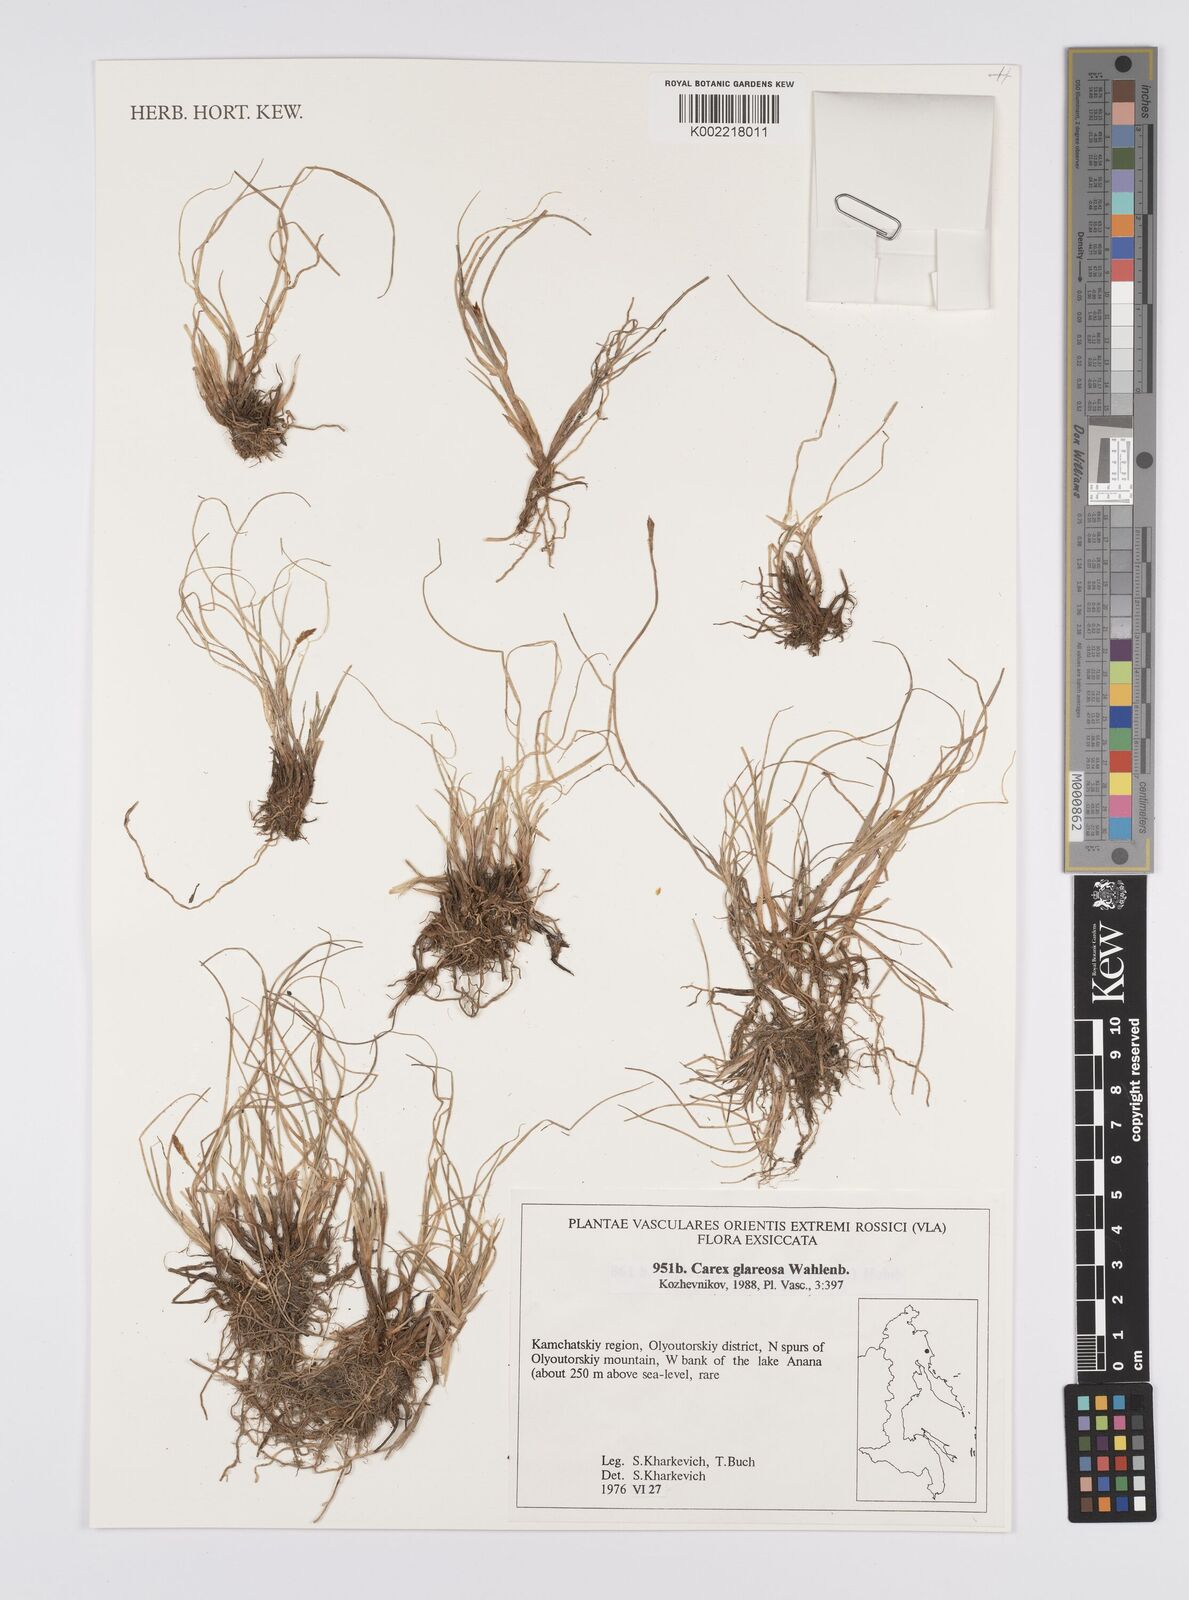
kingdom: Plantae
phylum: Tracheophyta
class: Liliopsida
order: Poales
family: Cyperaceae
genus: Carex
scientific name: Carex glareosa
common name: Clustered sedge
